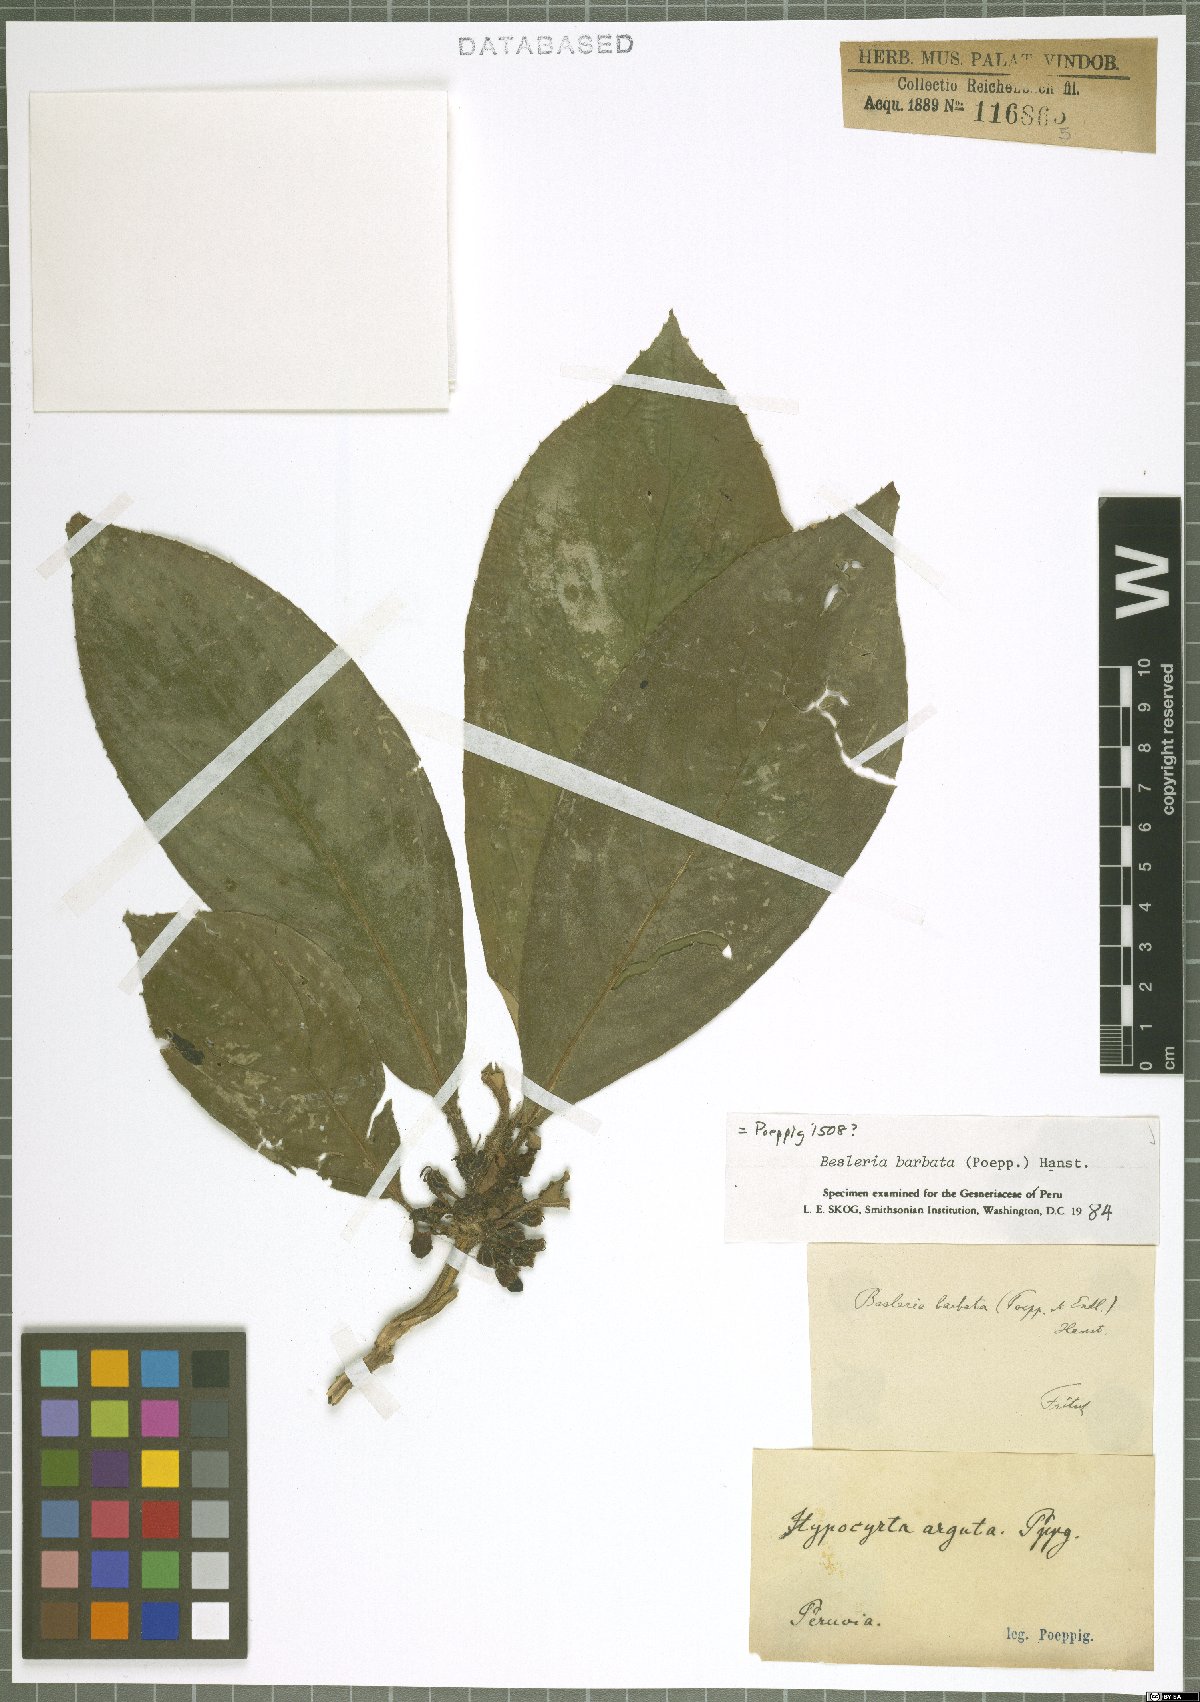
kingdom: Plantae
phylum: Tracheophyta
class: Magnoliopsida
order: Lamiales
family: Gesneriaceae
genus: Besleria
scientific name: Besleria barbata
